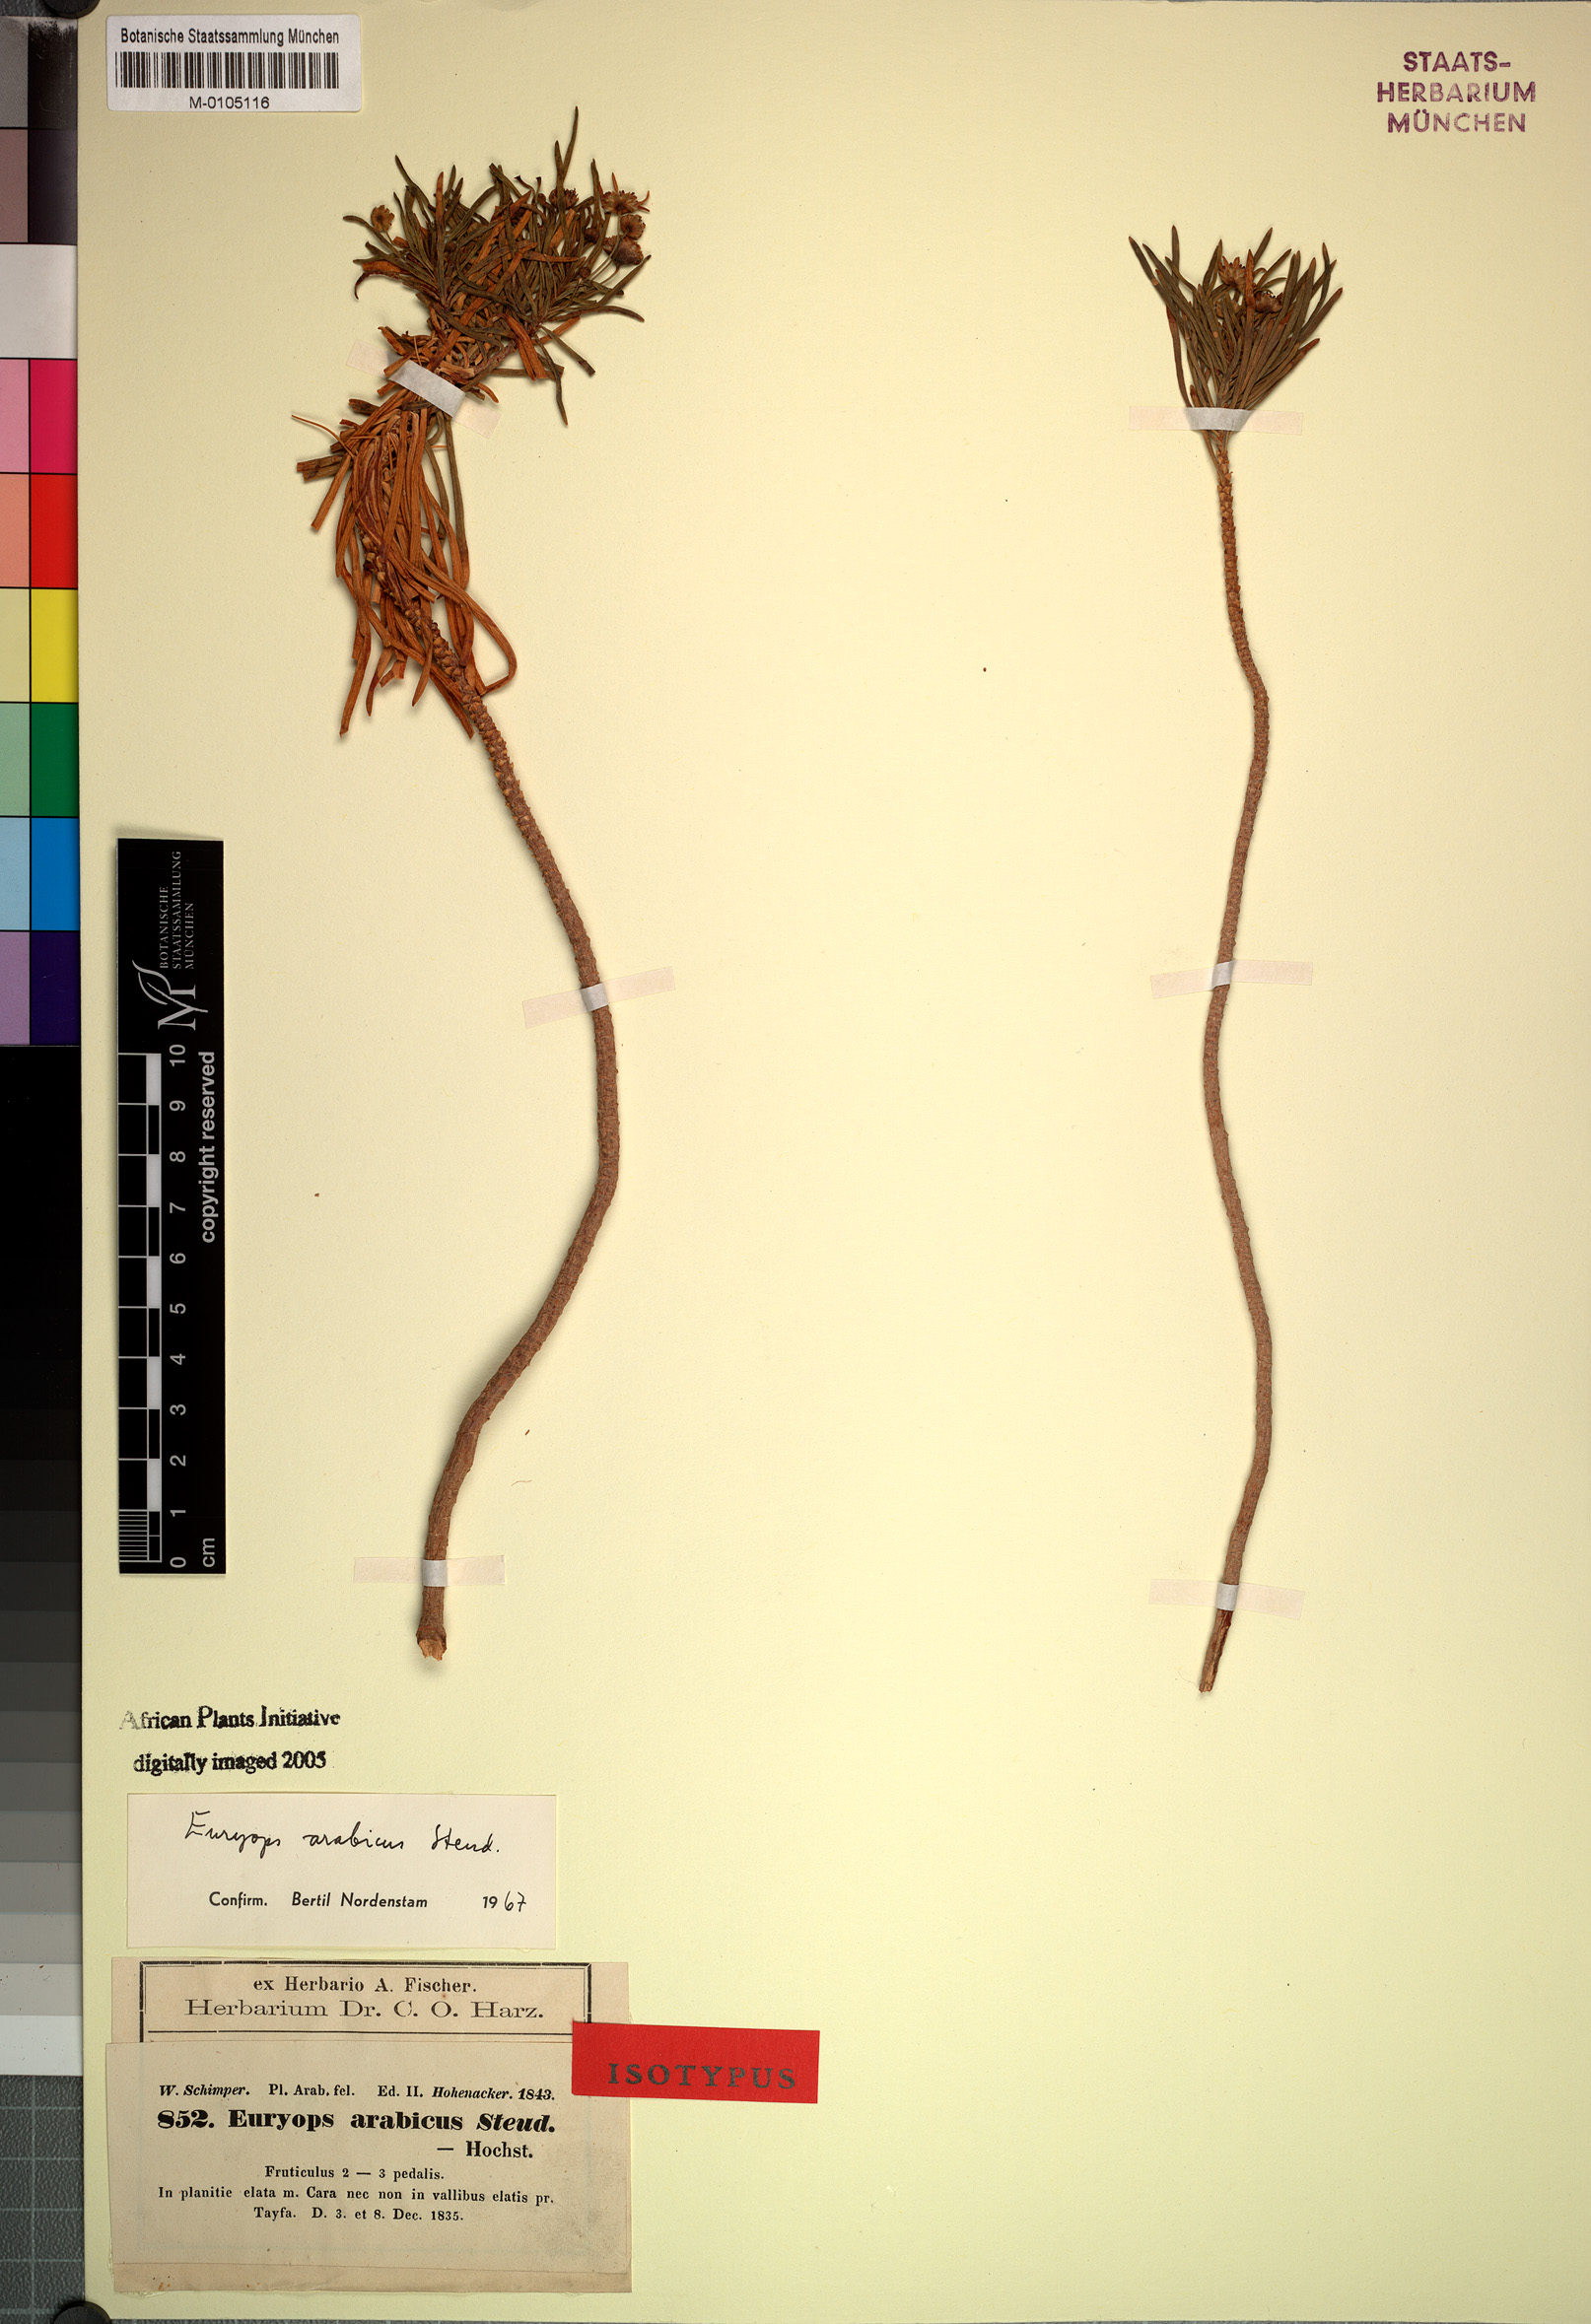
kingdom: Plantae
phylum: Tracheophyta
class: Magnoliopsida
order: Asterales
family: Asteraceae
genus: Euryops
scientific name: Euryops arabicus
